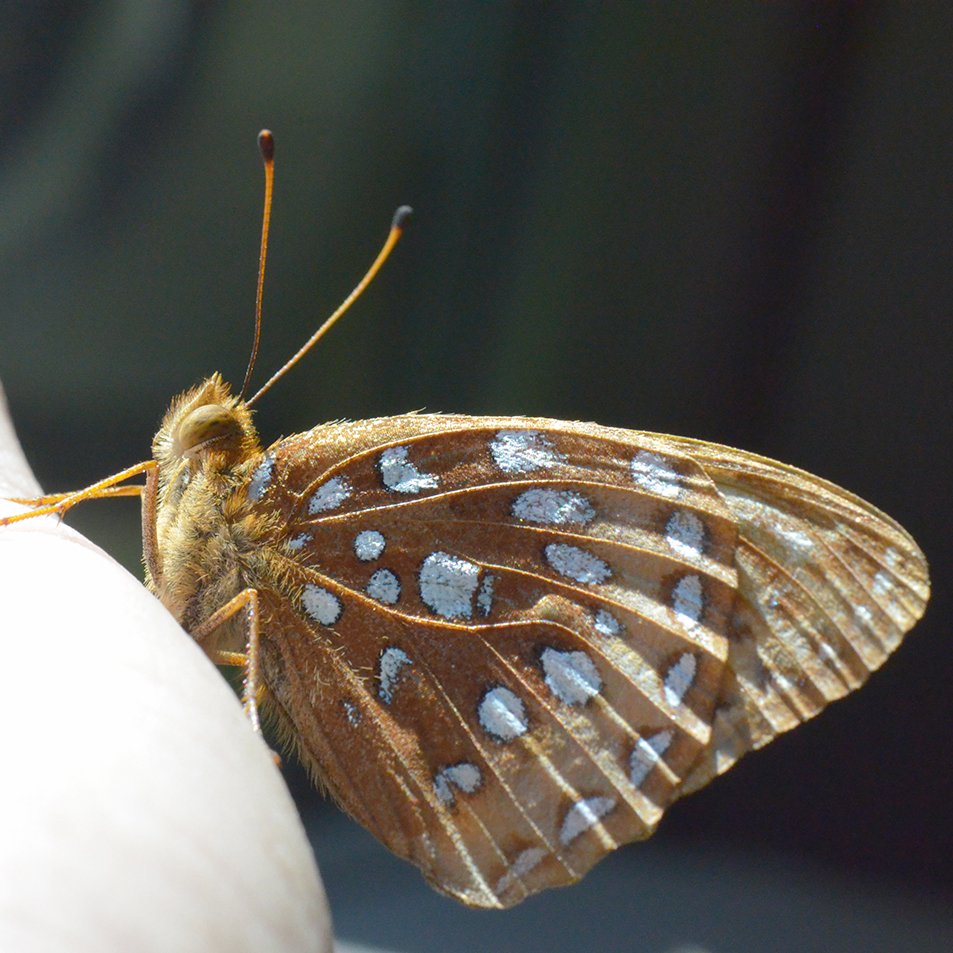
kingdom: Animalia
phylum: Arthropoda
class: Insecta
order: Lepidoptera
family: Nymphalidae
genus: Speyeria
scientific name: Speyeria cybele
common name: Great Spangled Fritillary
